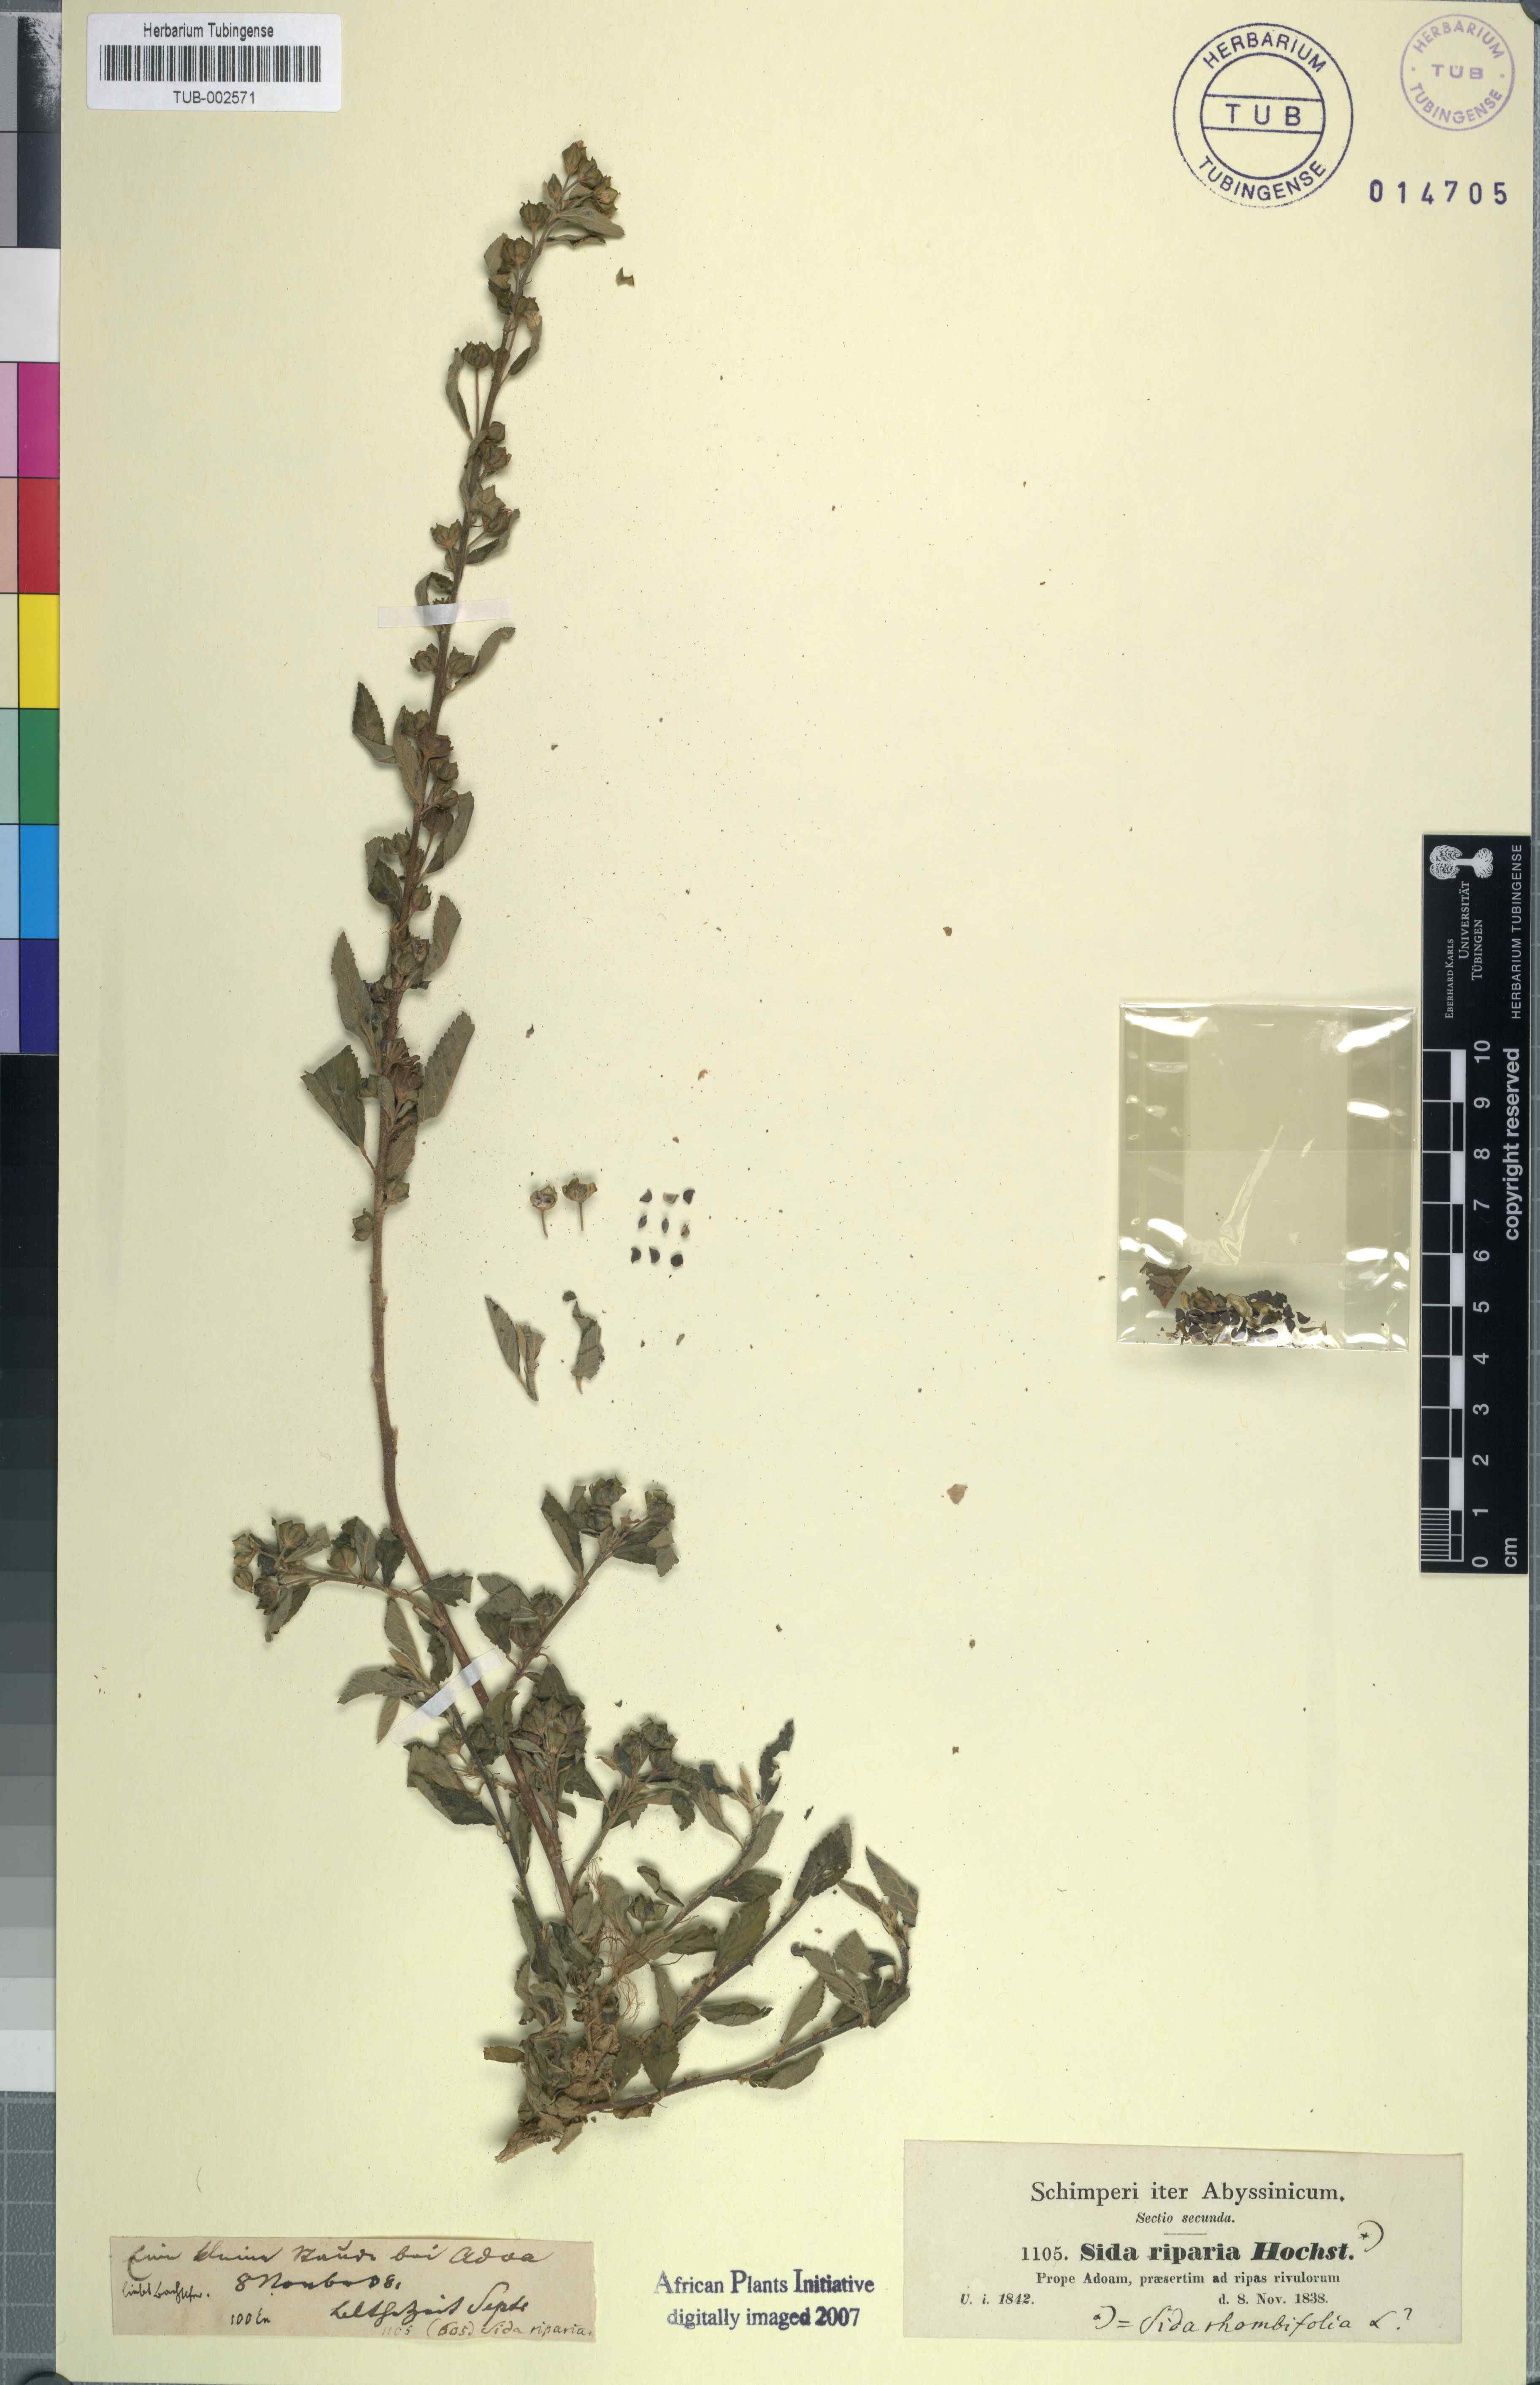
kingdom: Plantae
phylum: Tracheophyta
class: Magnoliopsida
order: Malvales
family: Malvaceae
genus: Sida
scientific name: Sida rhombifolia
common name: Queensland-hemp
